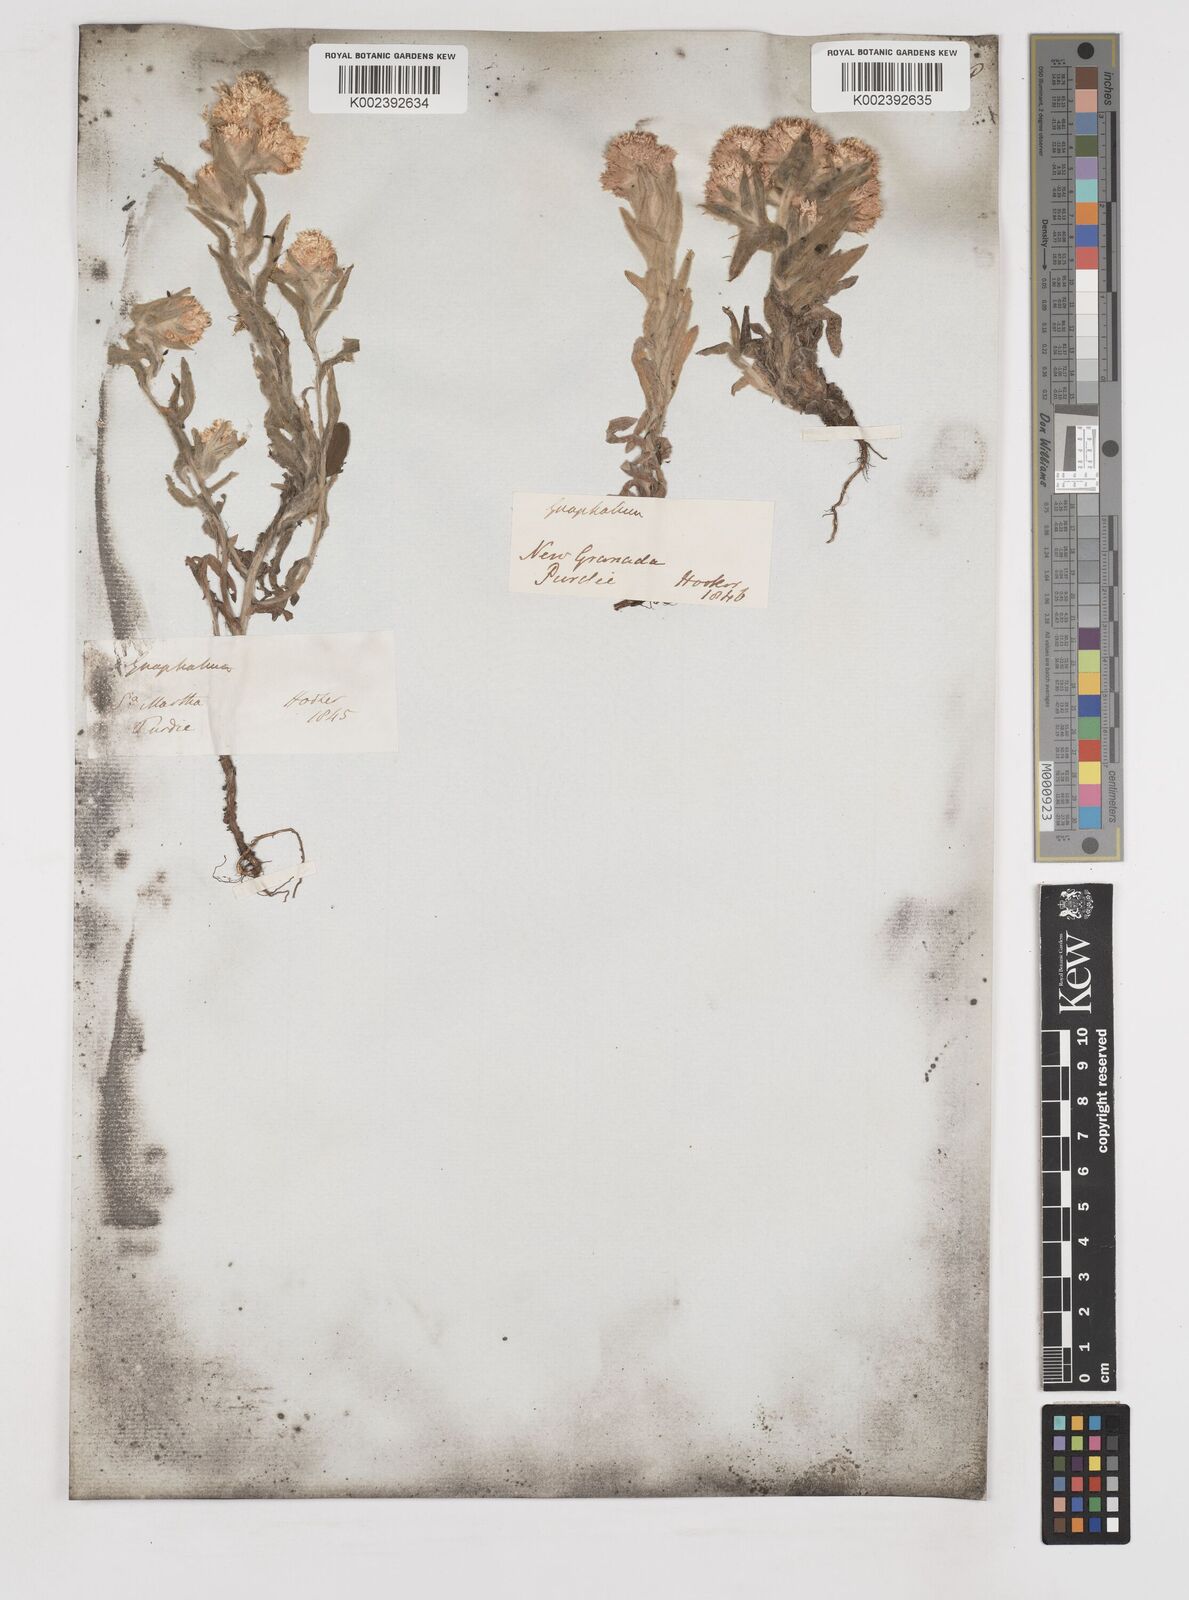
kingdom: Plantae
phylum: Tracheophyta
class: Magnoliopsida
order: Asterales
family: Asteraceae
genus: Gnaphalium
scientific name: Gnaphalium
